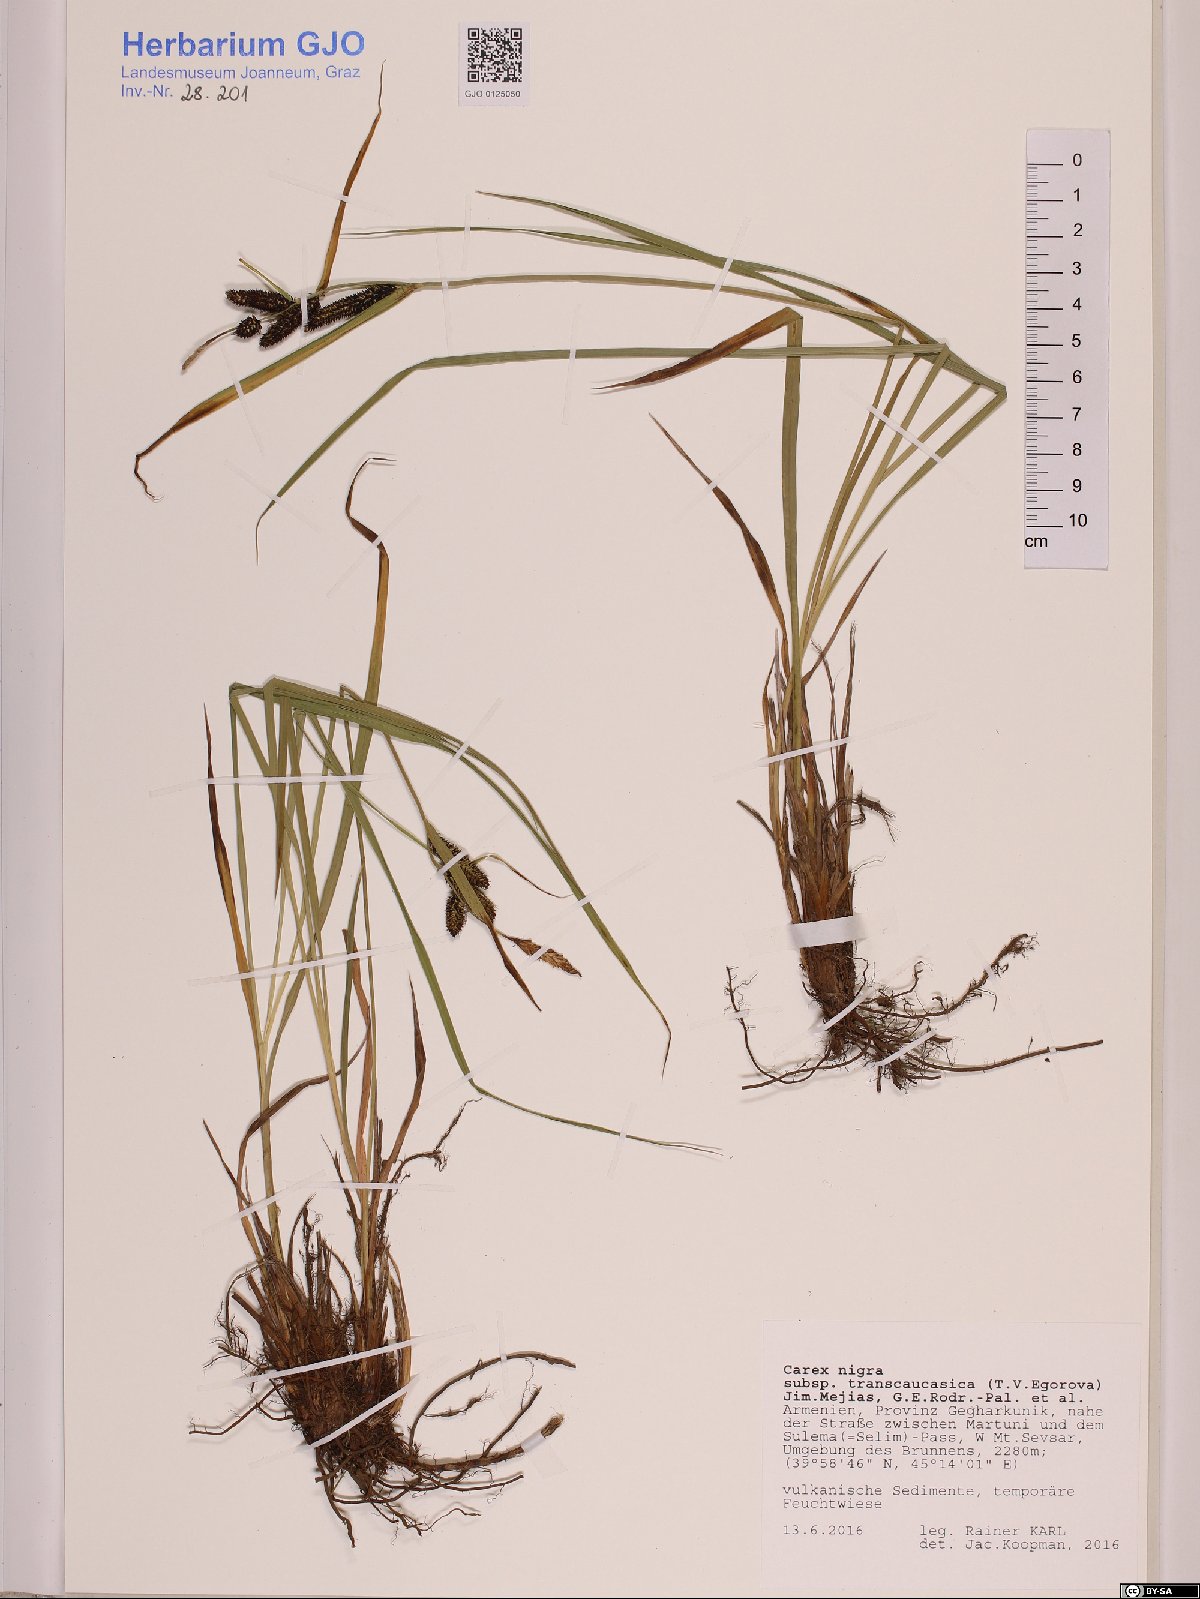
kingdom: Plantae
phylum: Tracheophyta
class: Liliopsida
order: Poales
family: Cyperaceae
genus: Carex
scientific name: Carex nigra
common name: Common sedge
